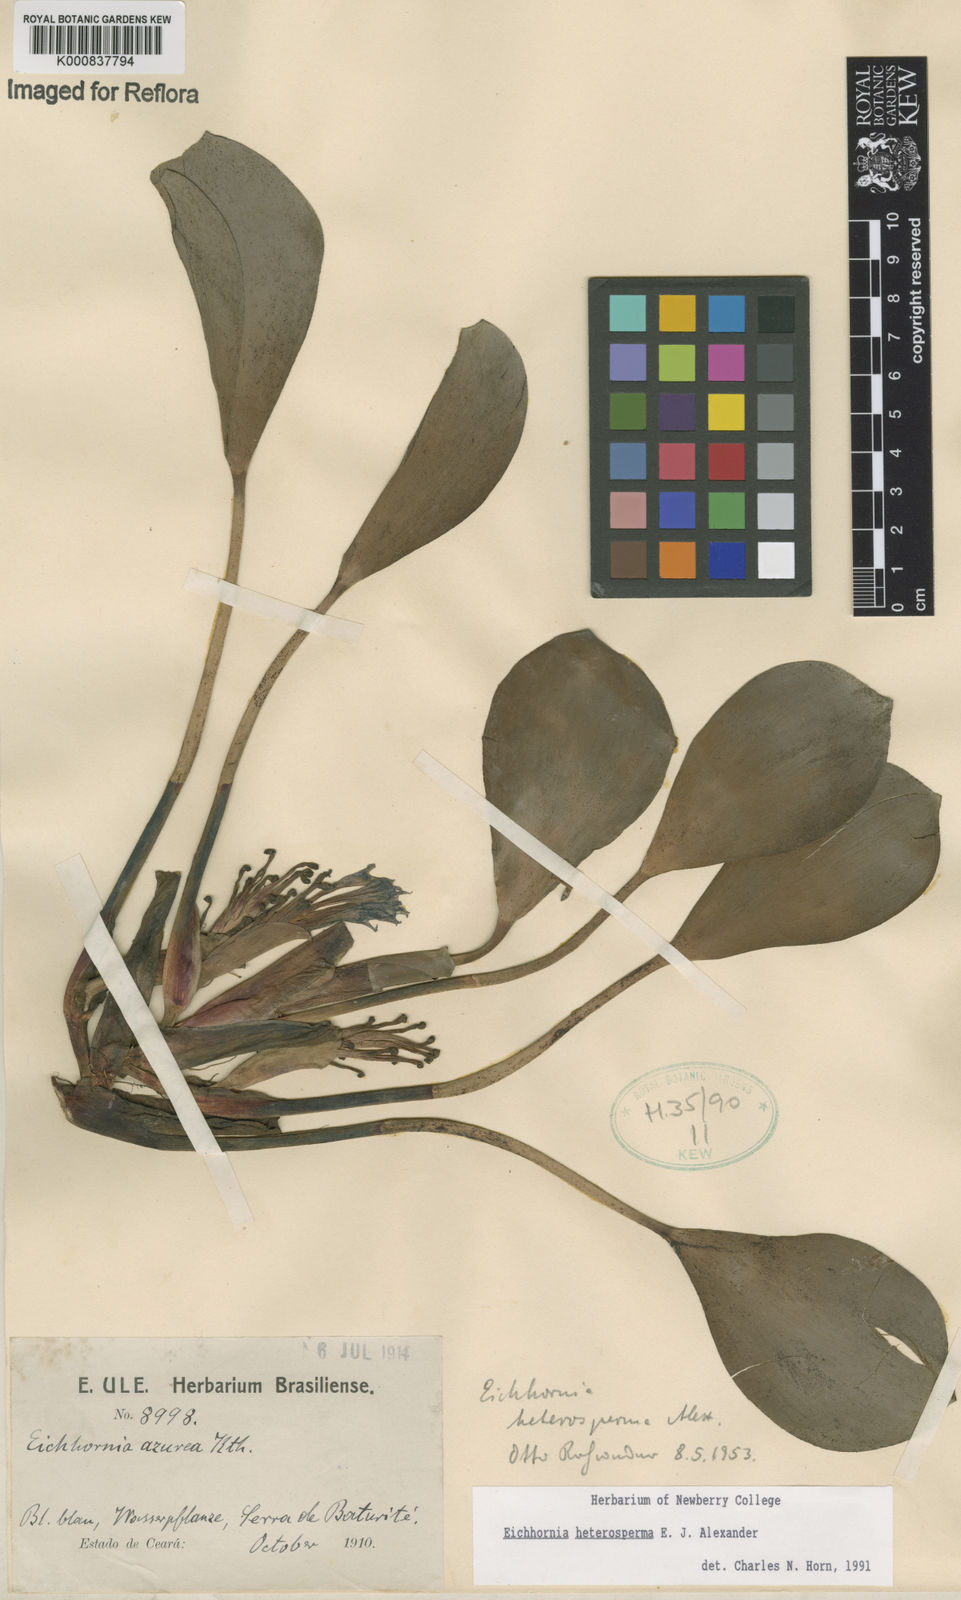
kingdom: Plantae
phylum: Tracheophyta
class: Liliopsida
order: Commelinales
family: Pontederiaceae
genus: Pontederia
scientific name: Pontederia heterosperma
